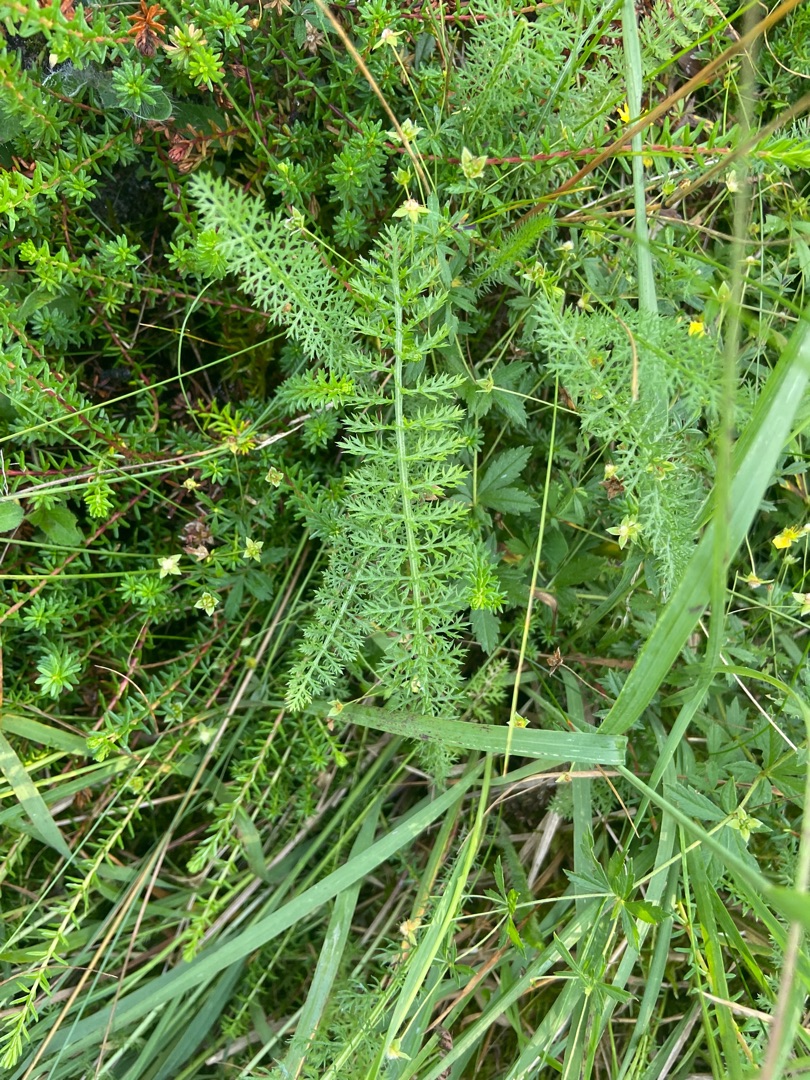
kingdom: Plantae
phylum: Tracheophyta
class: Magnoliopsida
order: Asterales
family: Asteraceae
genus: Achillea
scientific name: Achillea millefolium
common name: Almindelig røllike
